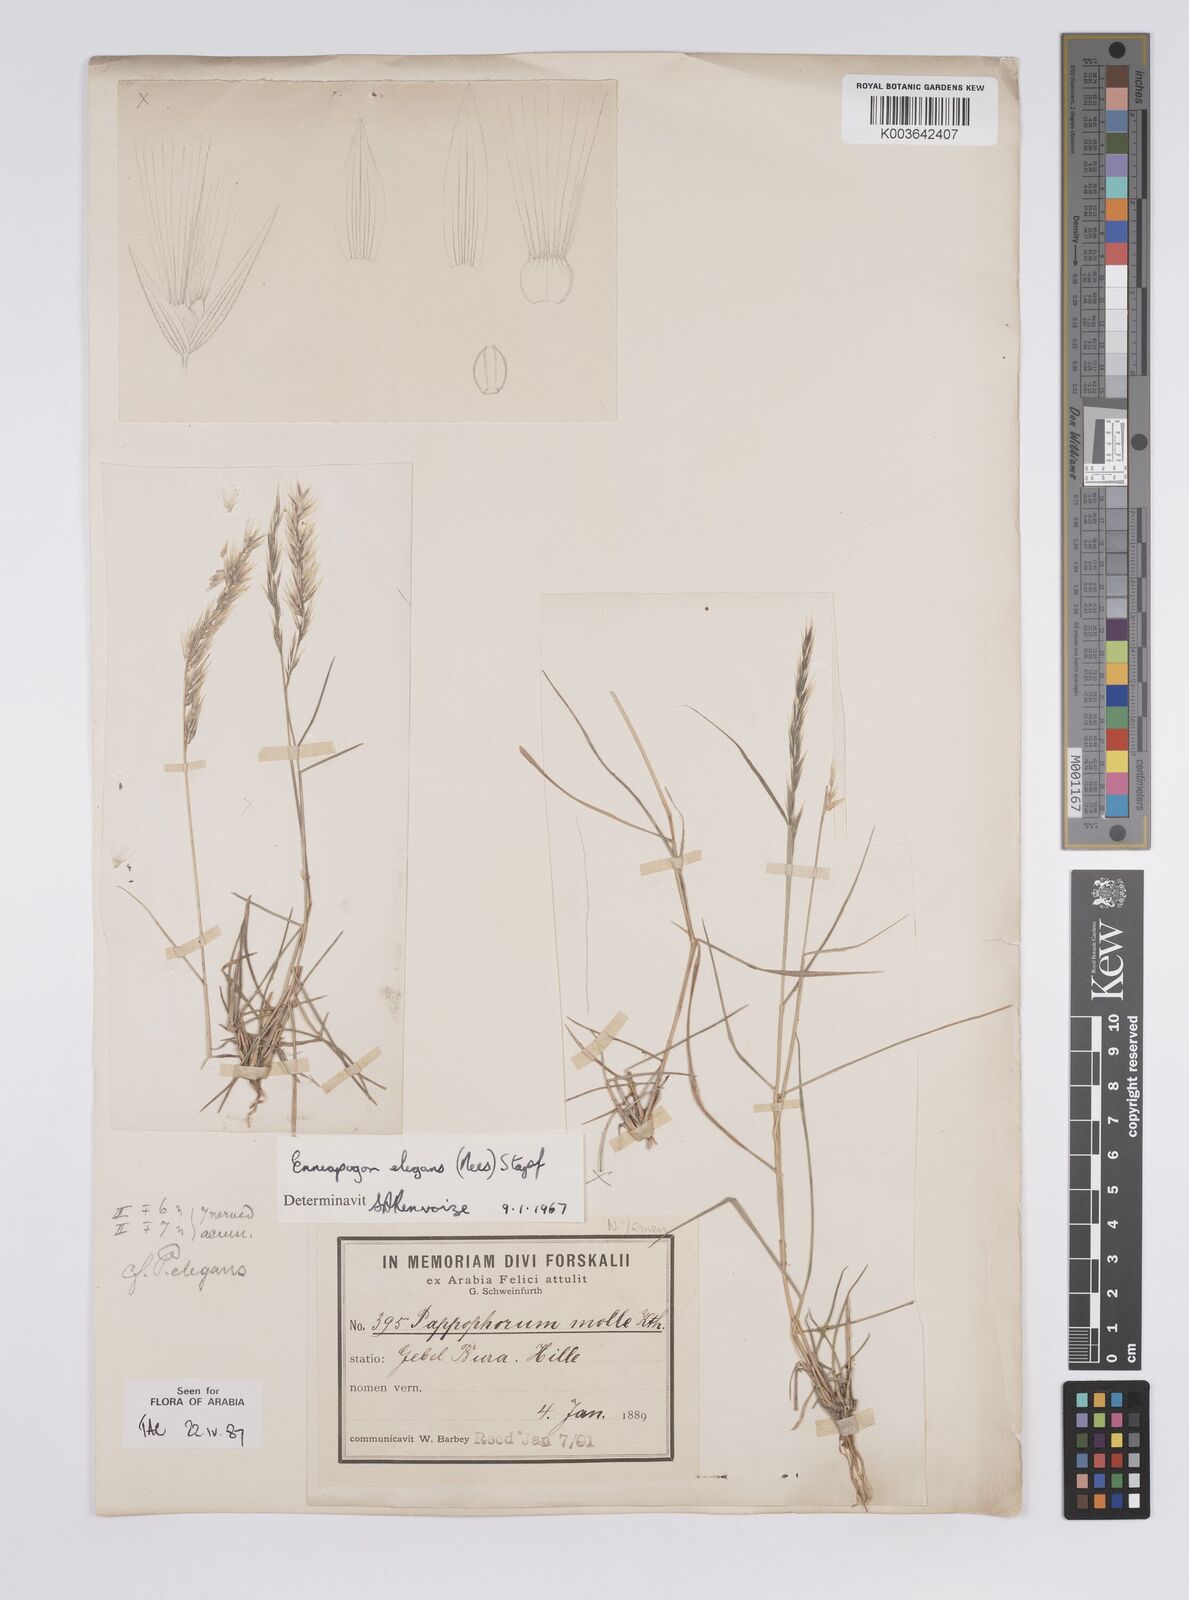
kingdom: Plantae
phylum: Tracheophyta
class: Liliopsida
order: Poales
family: Poaceae
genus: Enneapogon
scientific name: Enneapogon persicus
